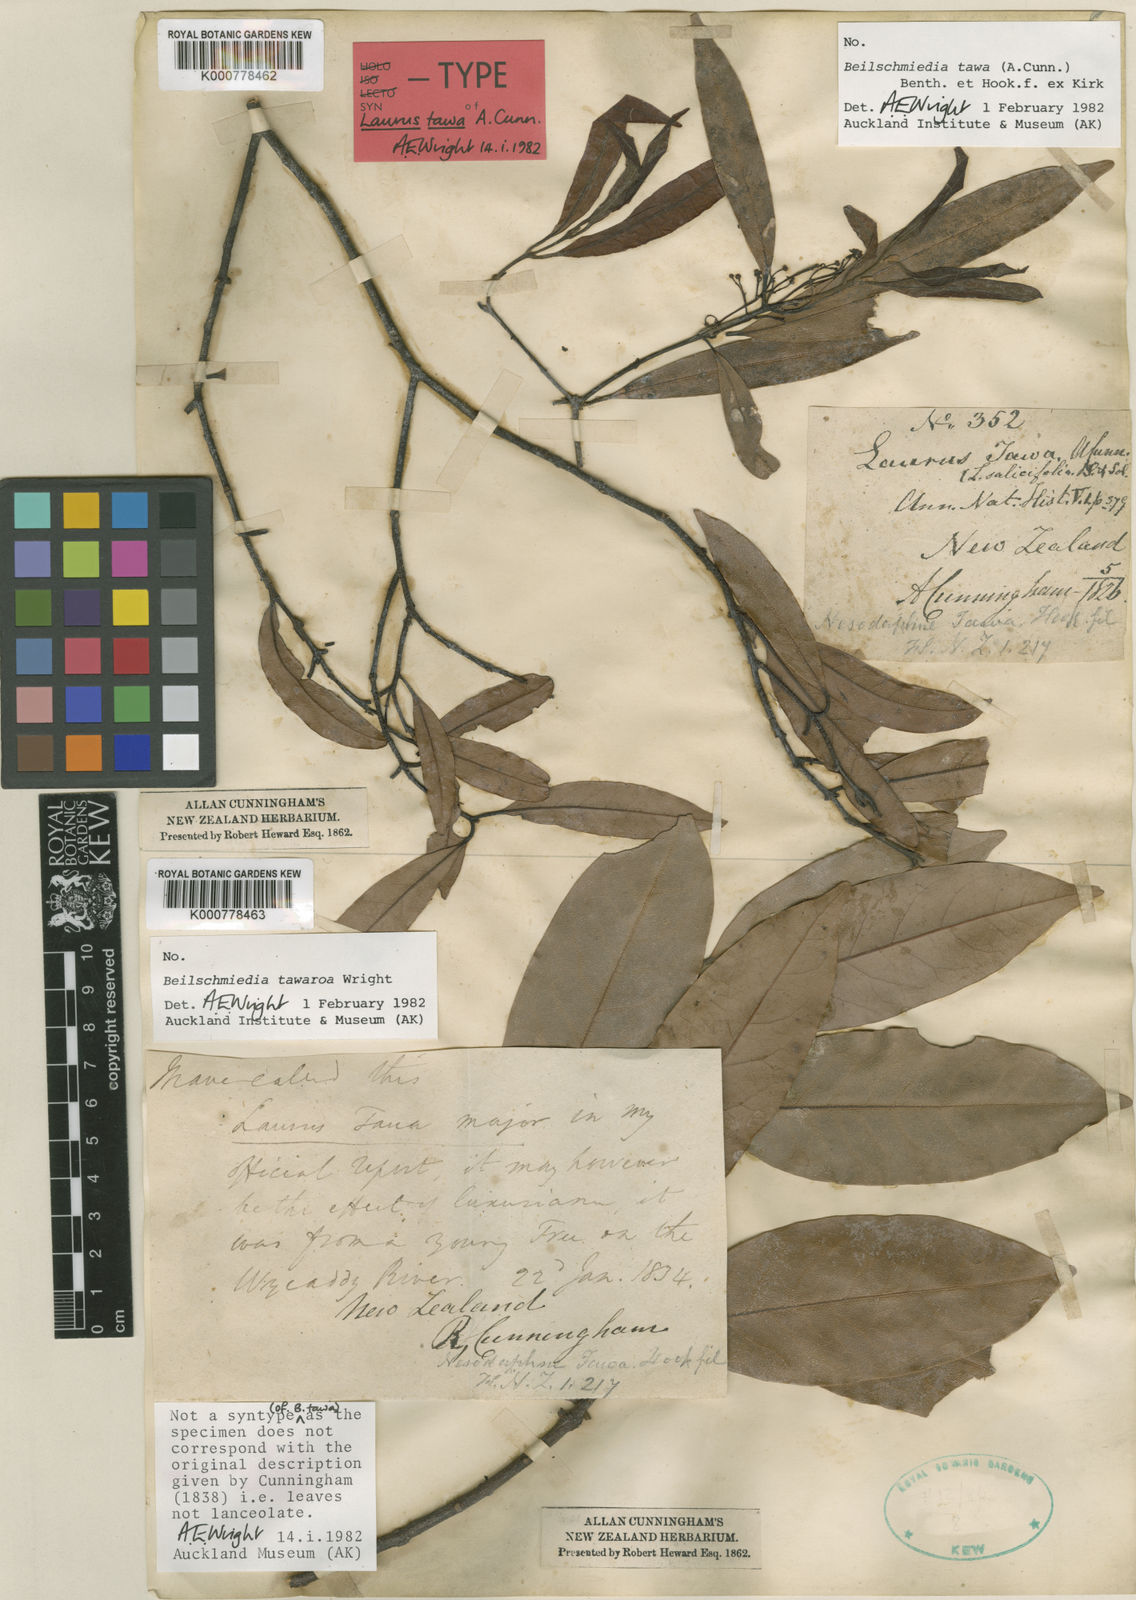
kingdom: Plantae
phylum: Tracheophyta
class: Magnoliopsida
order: Laurales
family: Lauraceae
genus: Beilschmiedia
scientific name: Beilschmiedia
